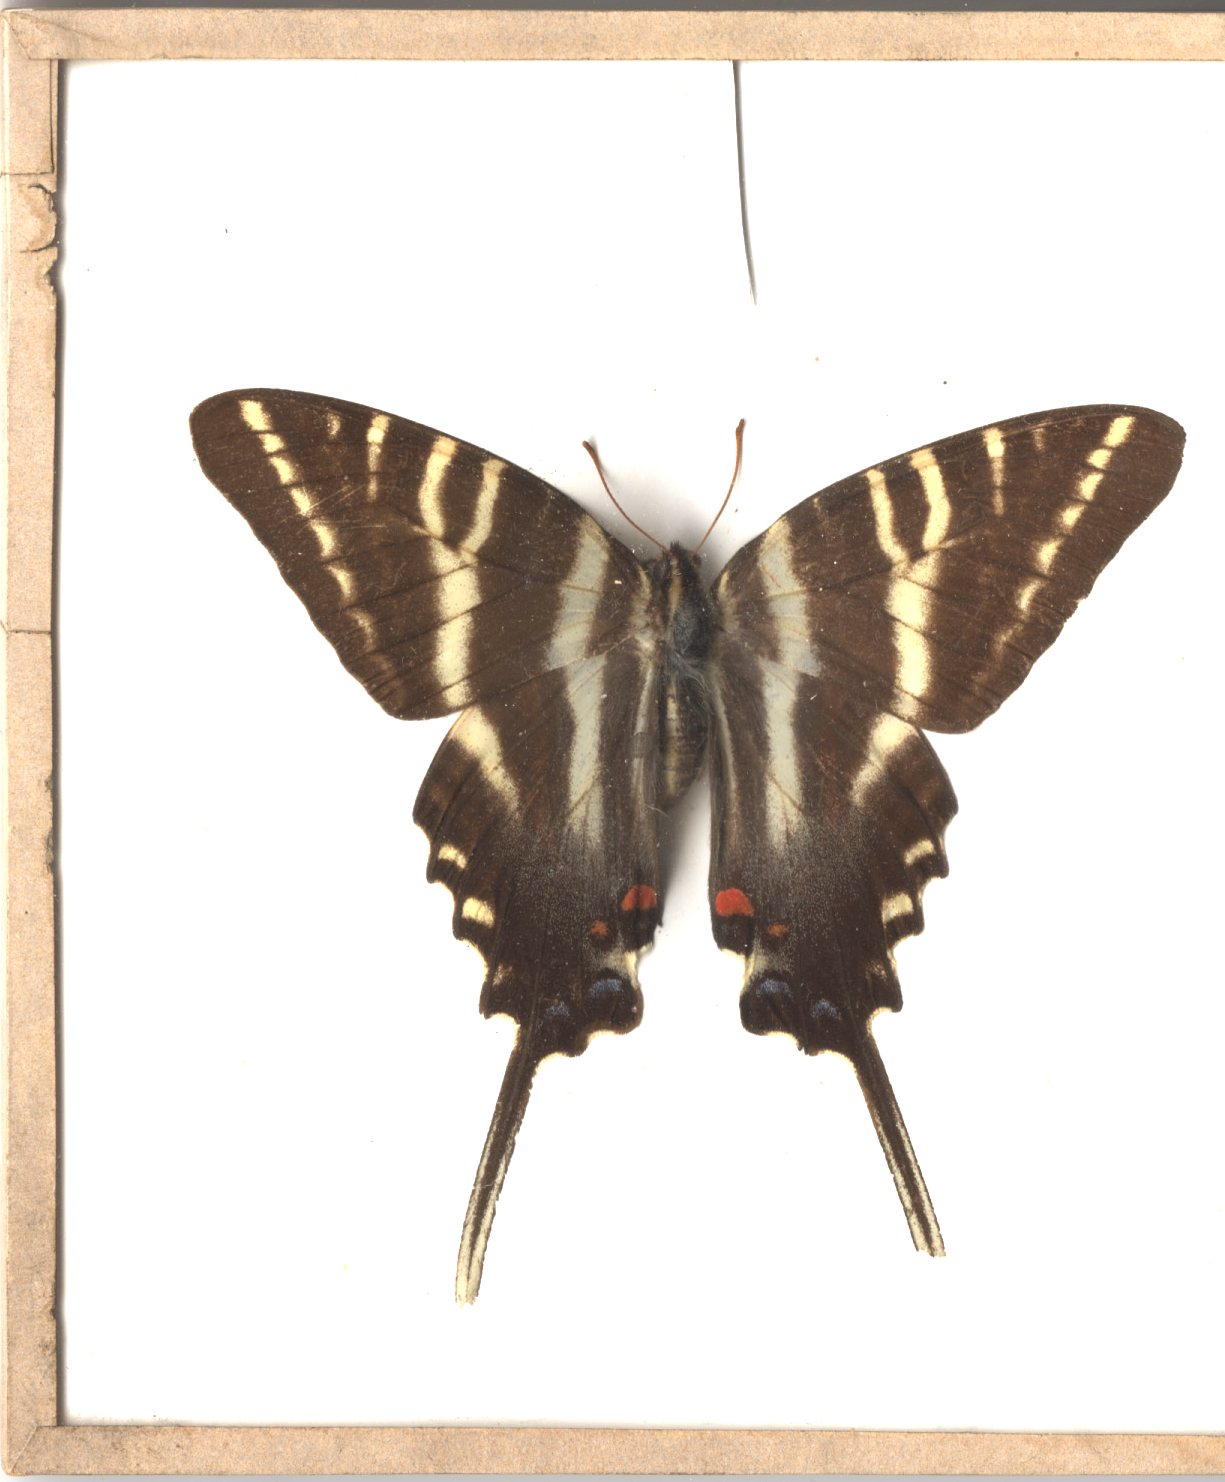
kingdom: Animalia
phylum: Arthropoda
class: Insecta
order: Lepidoptera
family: Papilionidae
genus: Protographium
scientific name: Protographium marcellus
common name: Zebra Swallowtail
